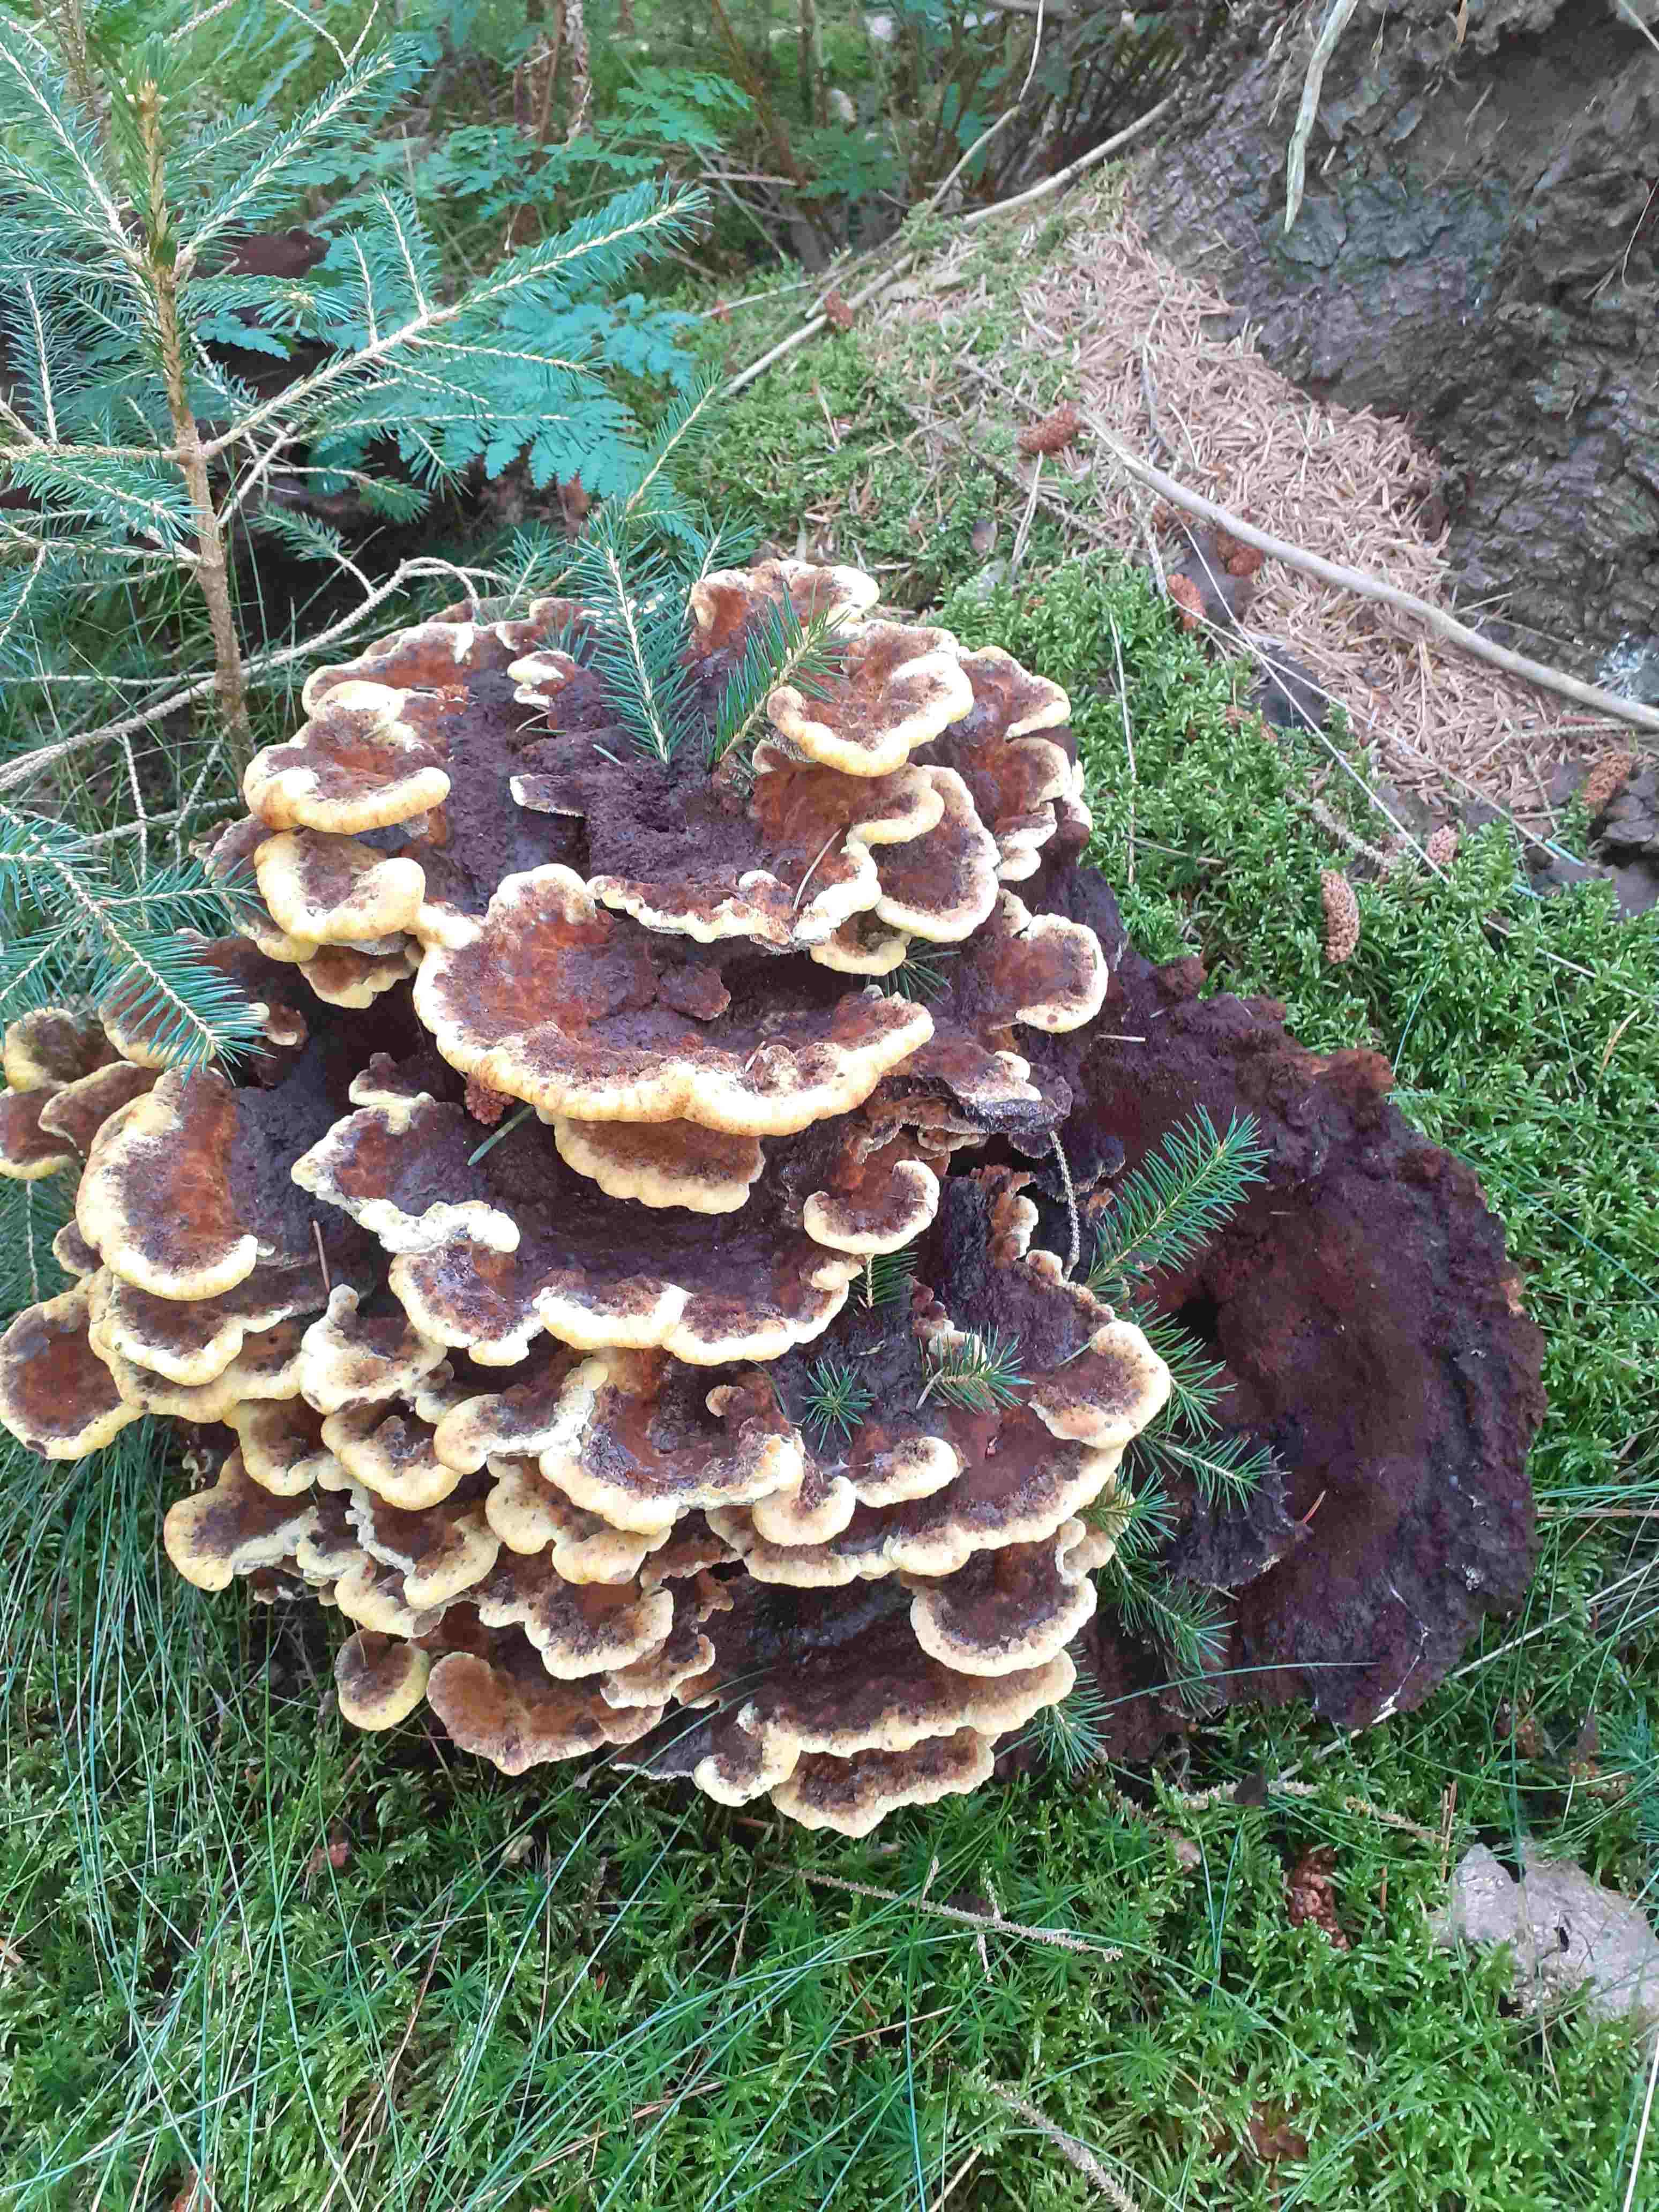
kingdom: Fungi
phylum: Basidiomycota
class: Agaricomycetes
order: Polyporales
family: Laetiporaceae
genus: Phaeolus
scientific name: Phaeolus schweinitzii
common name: brunporesvamp
